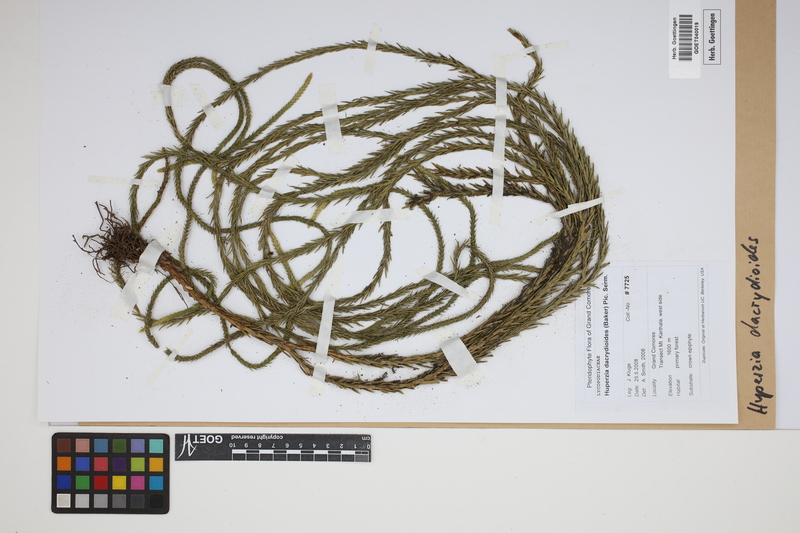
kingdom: Plantae
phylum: Tracheophyta
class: Lycopodiopsida
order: Lycopodiales
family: Lycopodiaceae
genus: Phlegmariurus
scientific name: Phlegmariurus dacrydioides
